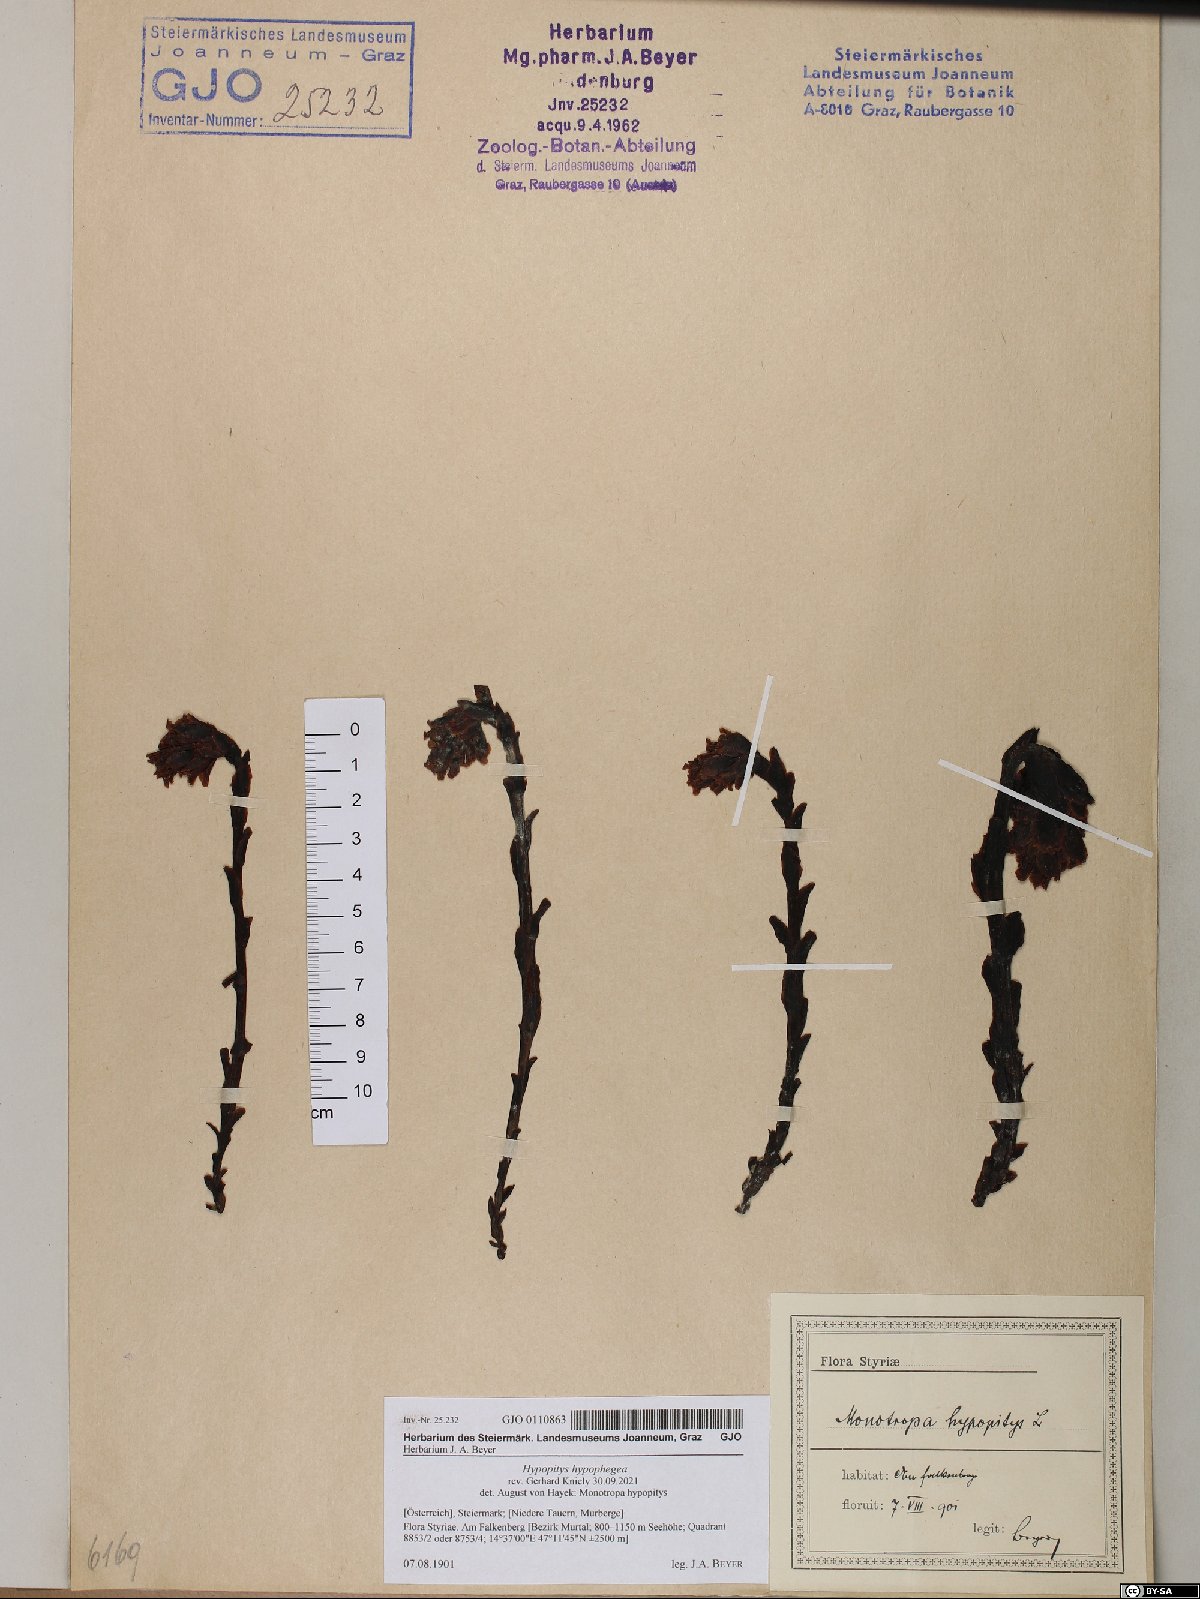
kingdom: Plantae
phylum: Tracheophyta
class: Magnoliopsida
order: Ericales
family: Ericaceae
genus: Hypopitys
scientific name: Hypopitys hypophegea
